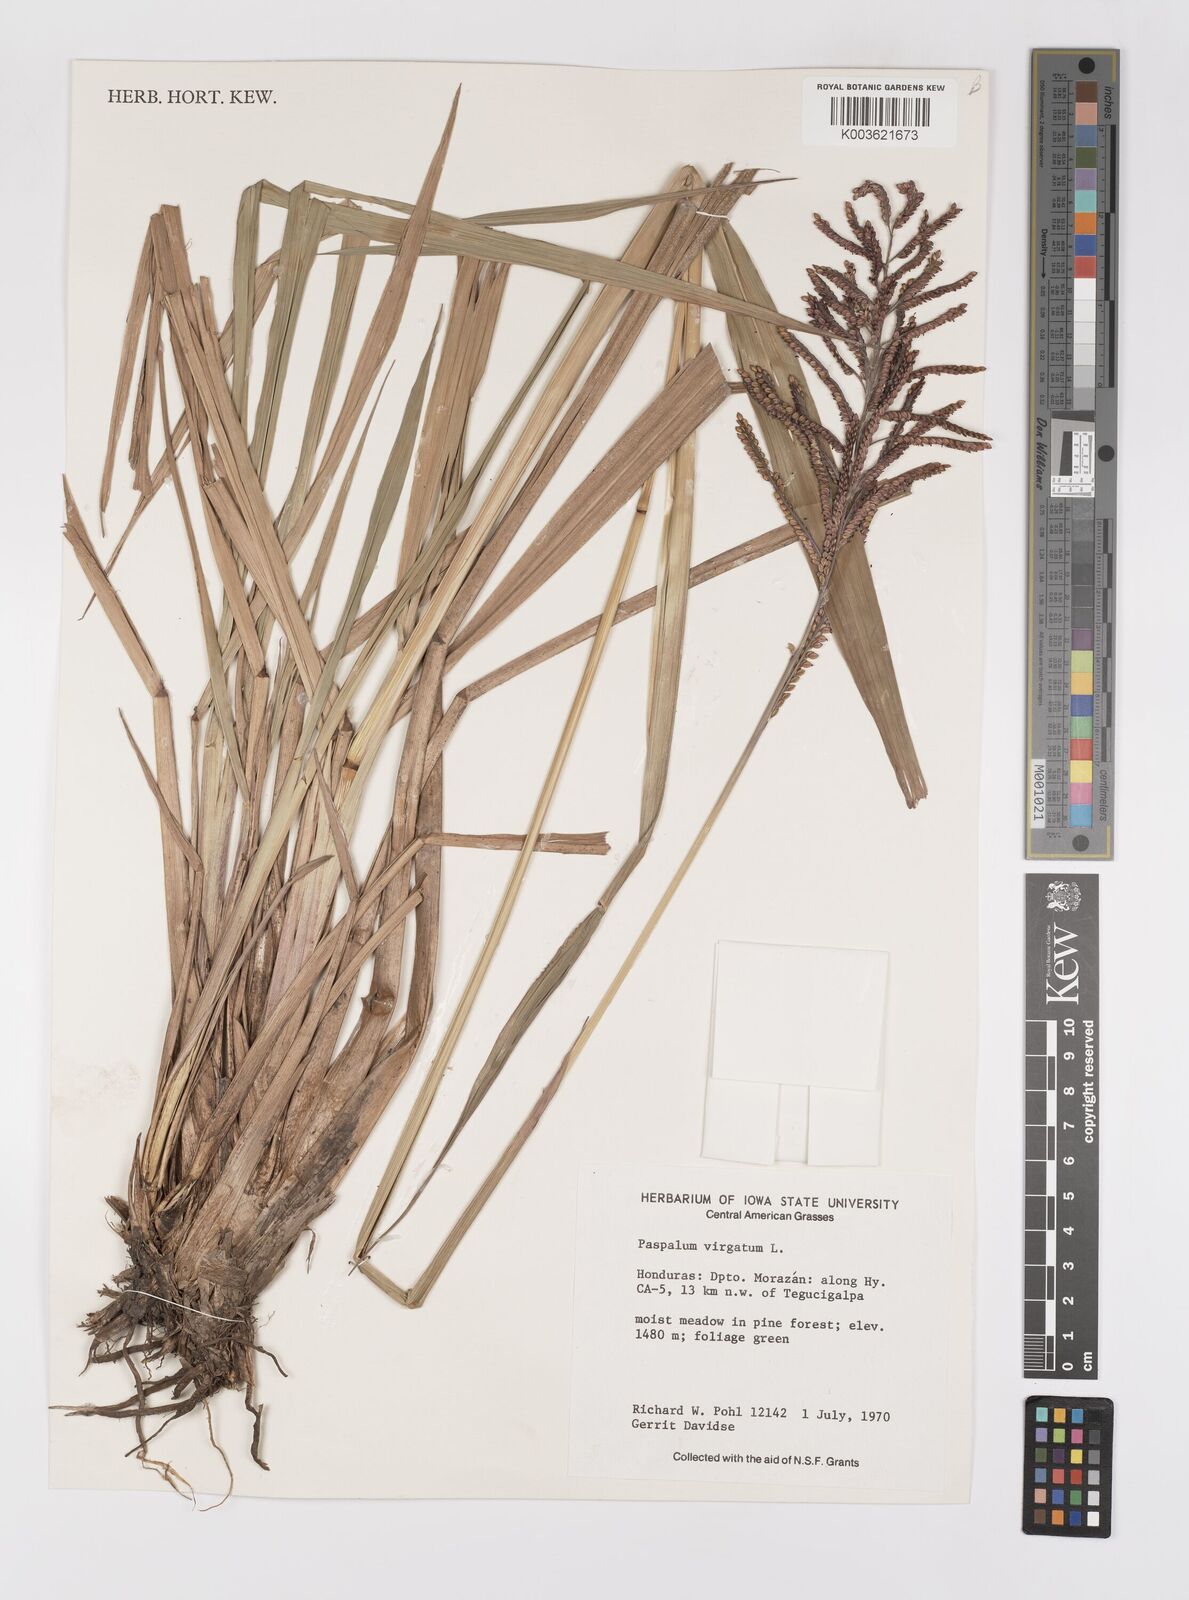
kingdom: Plantae
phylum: Tracheophyta
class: Liliopsida
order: Poales
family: Poaceae
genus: Paspalum
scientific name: Paspalum virgatum
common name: Talquezal
